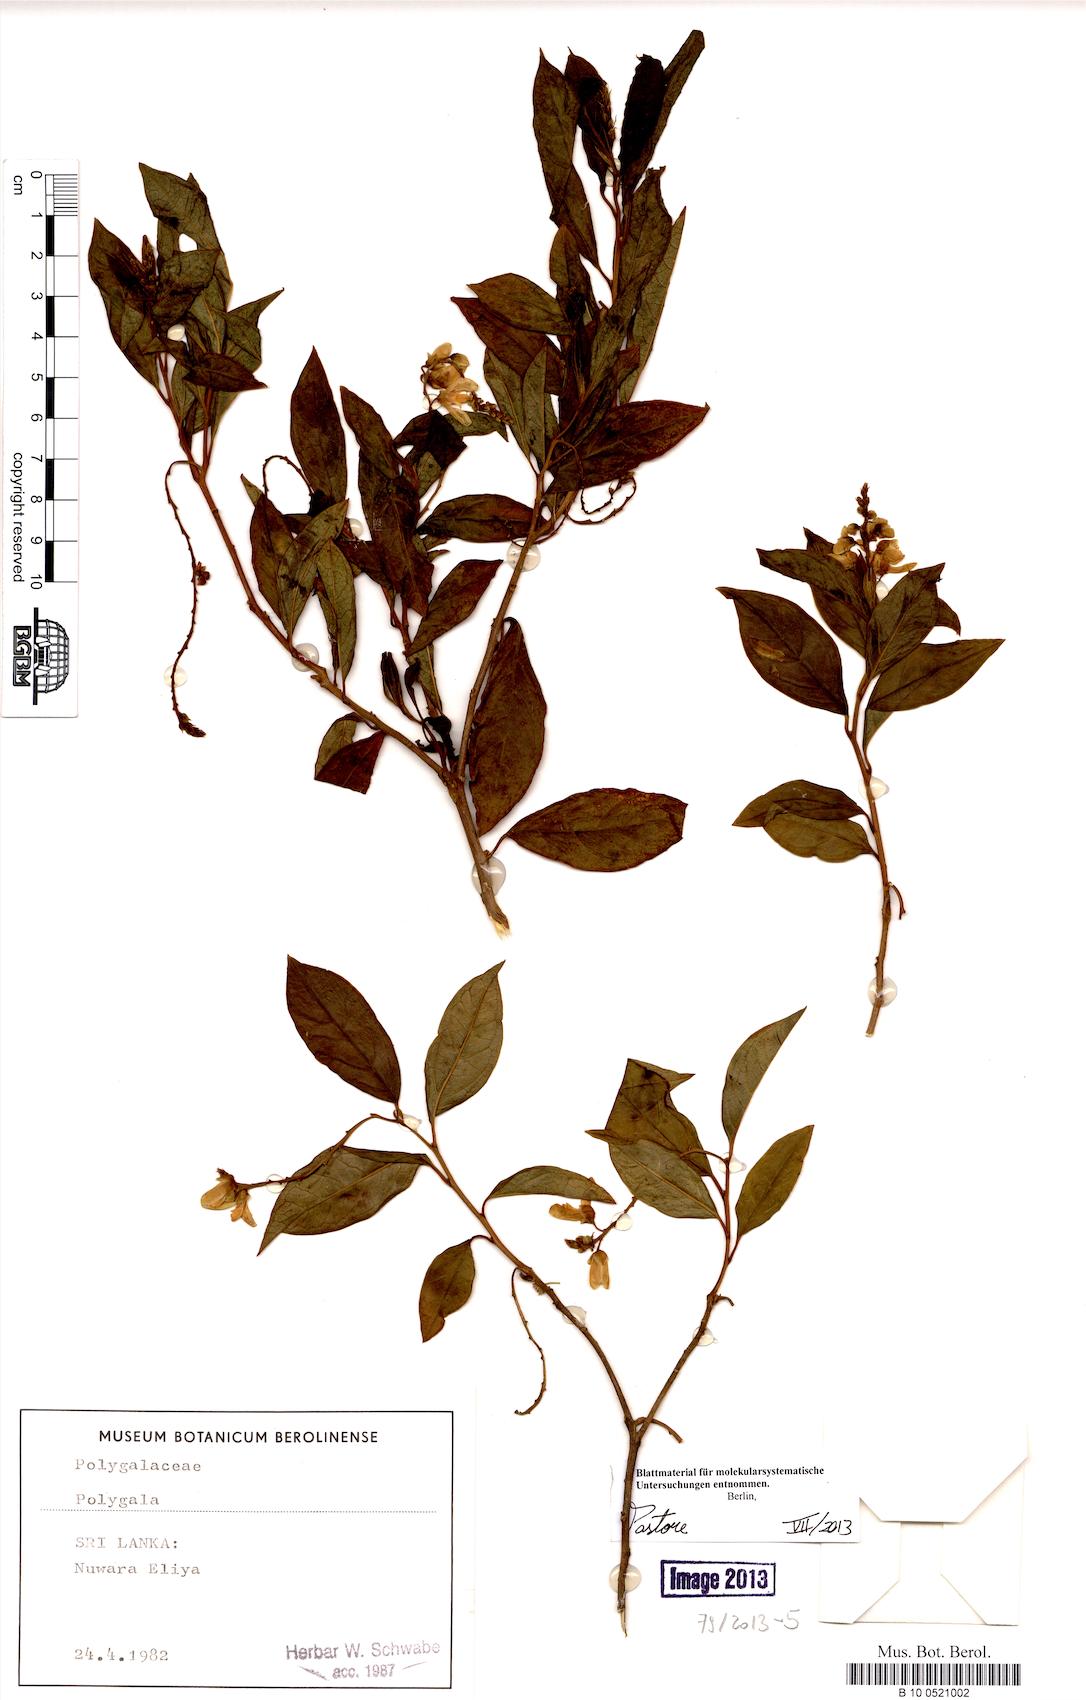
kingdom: Plantae
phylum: Tracheophyta
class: Magnoliopsida
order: Fabales
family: Polygalaceae
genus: Polygala
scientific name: Polygala
